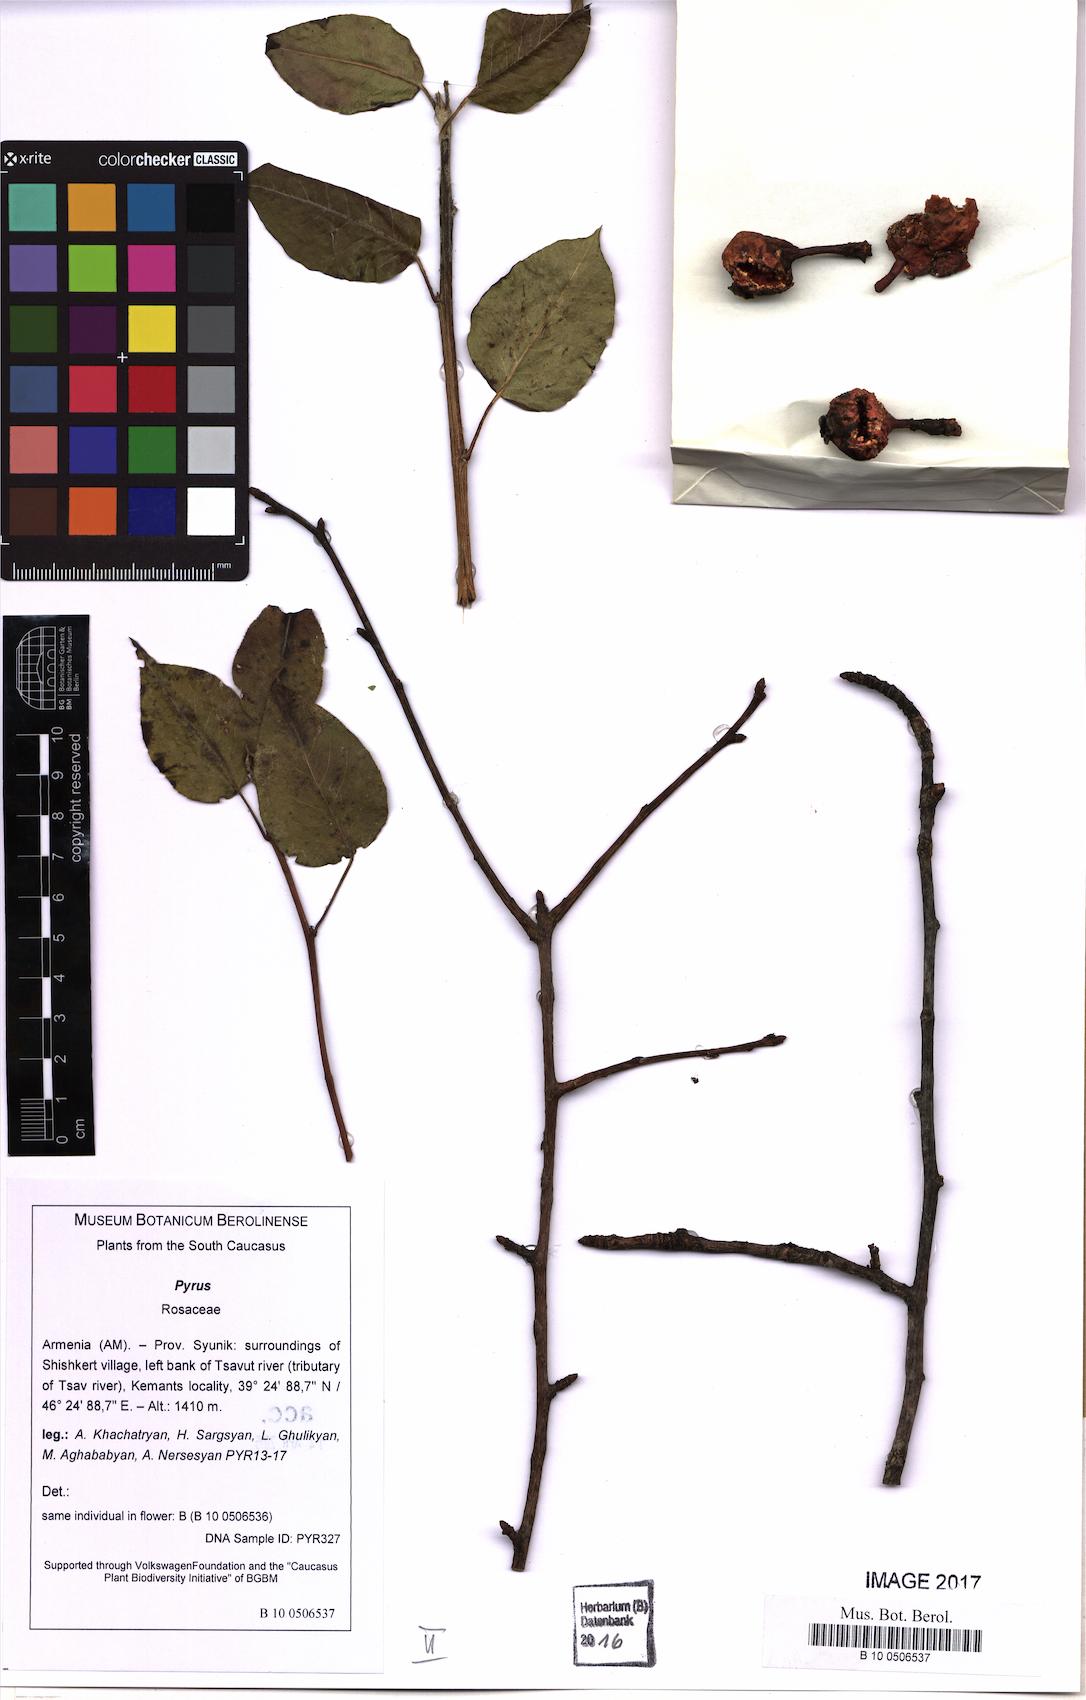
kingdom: Plantae
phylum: Tracheophyta
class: Magnoliopsida
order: Rosales
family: Rosaceae
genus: Pyrus
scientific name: Pyrus
